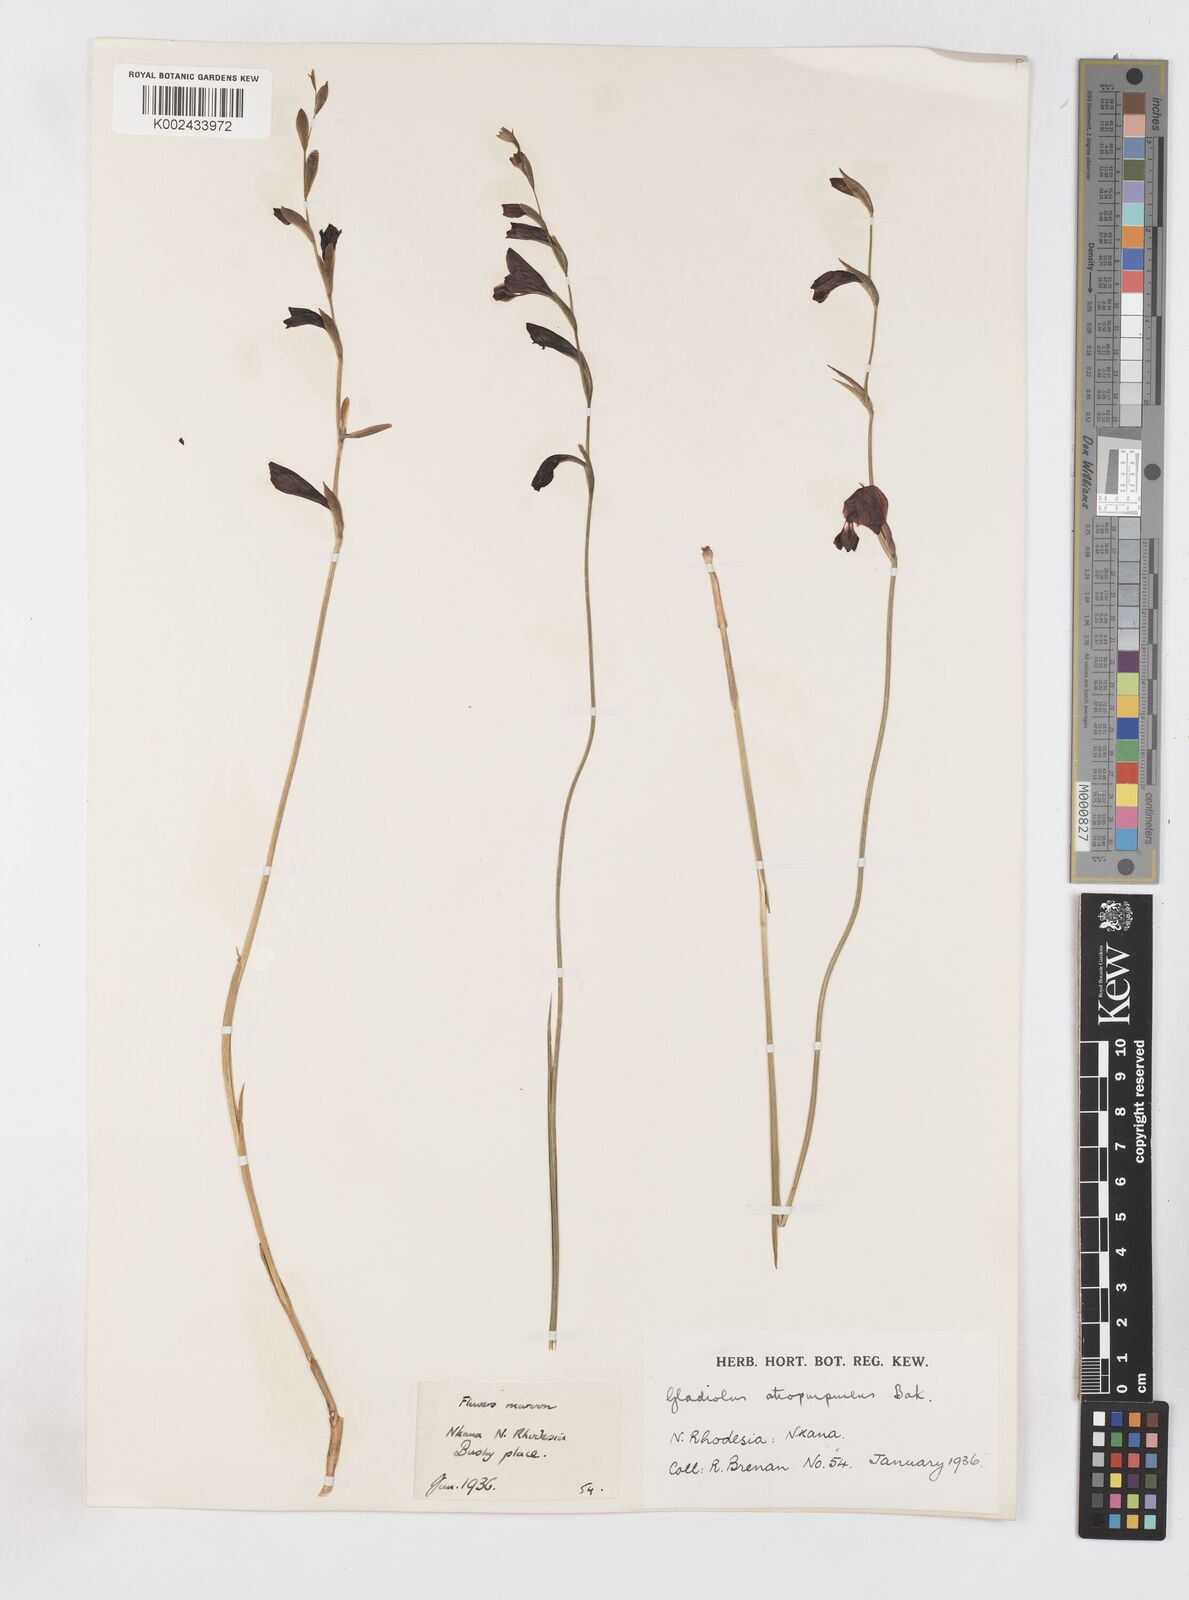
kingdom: Plantae
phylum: Tracheophyta
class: Liliopsida
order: Asparagales
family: Iridaceae
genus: Gladiolus
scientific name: Gladiolus atropurpureus
